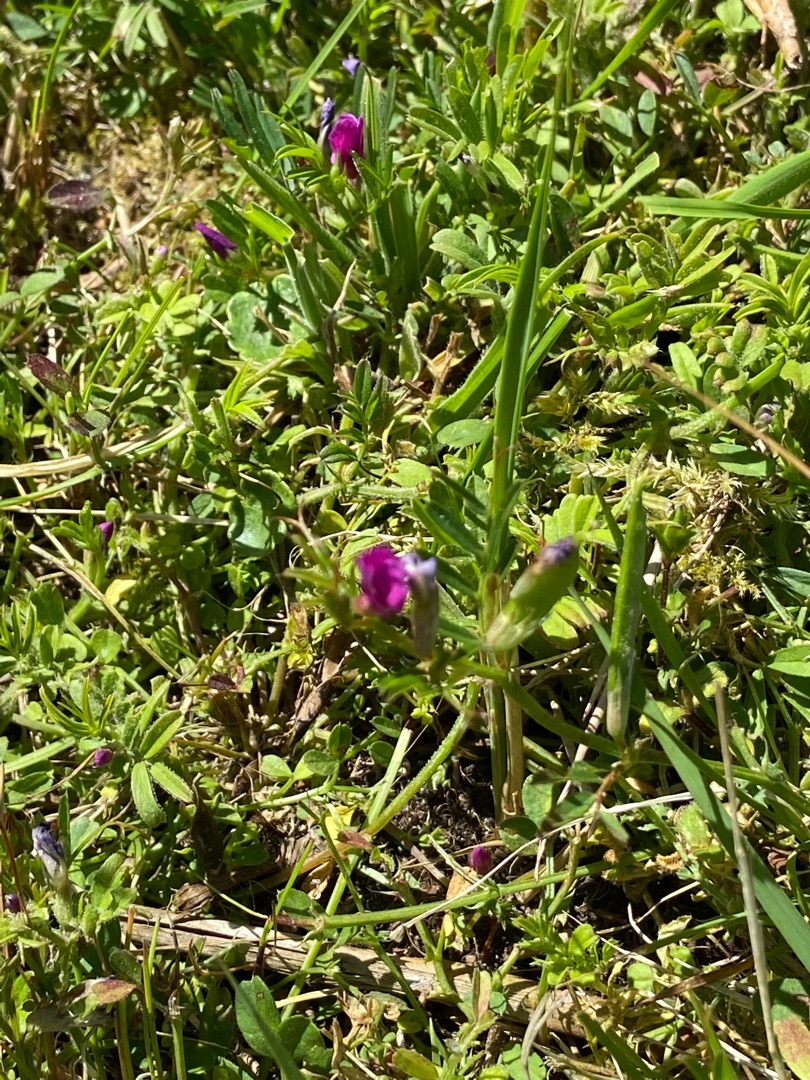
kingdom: Plantae
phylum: Tracheophyta
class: Magnoliopsida
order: Fabales
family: Fabaceae
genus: Vicia
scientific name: Vicia sativa
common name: Smalbladet vikke
